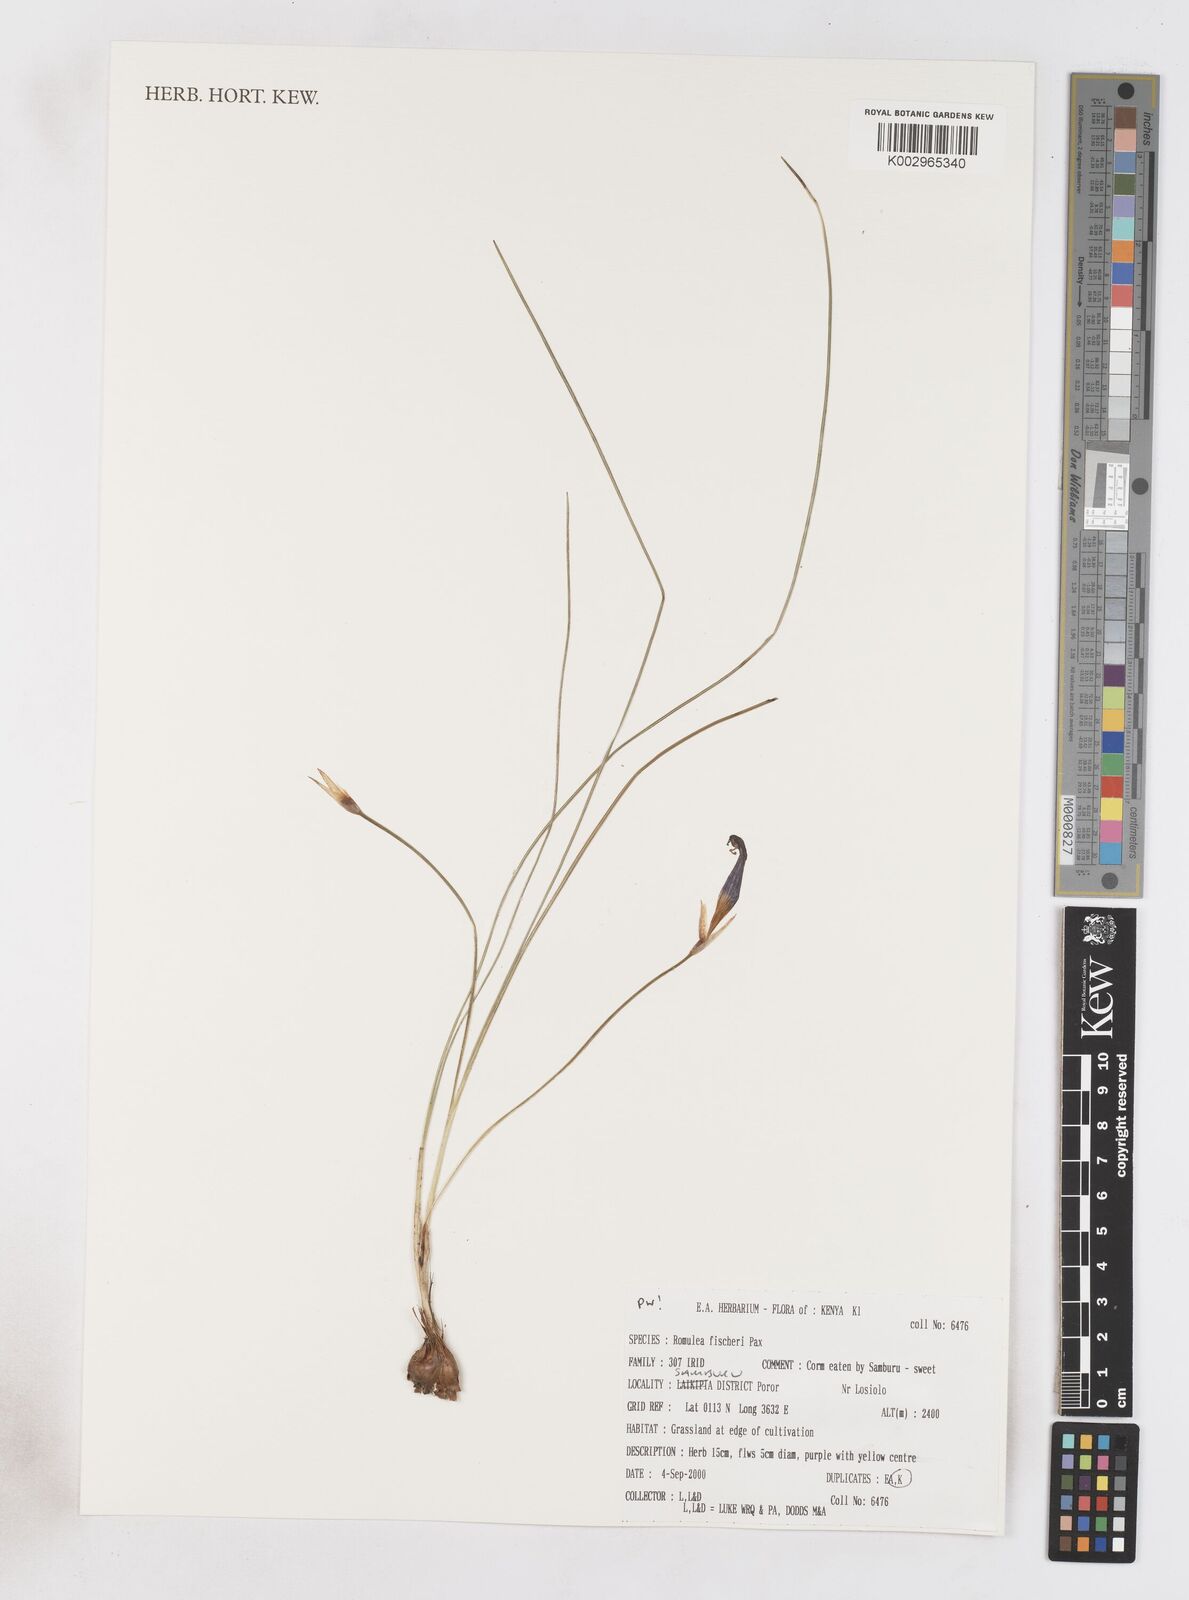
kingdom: Plantae
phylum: Tracheophyta
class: Liliopsida
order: Asparagales
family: Iridaceae
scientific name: Iridaceae
